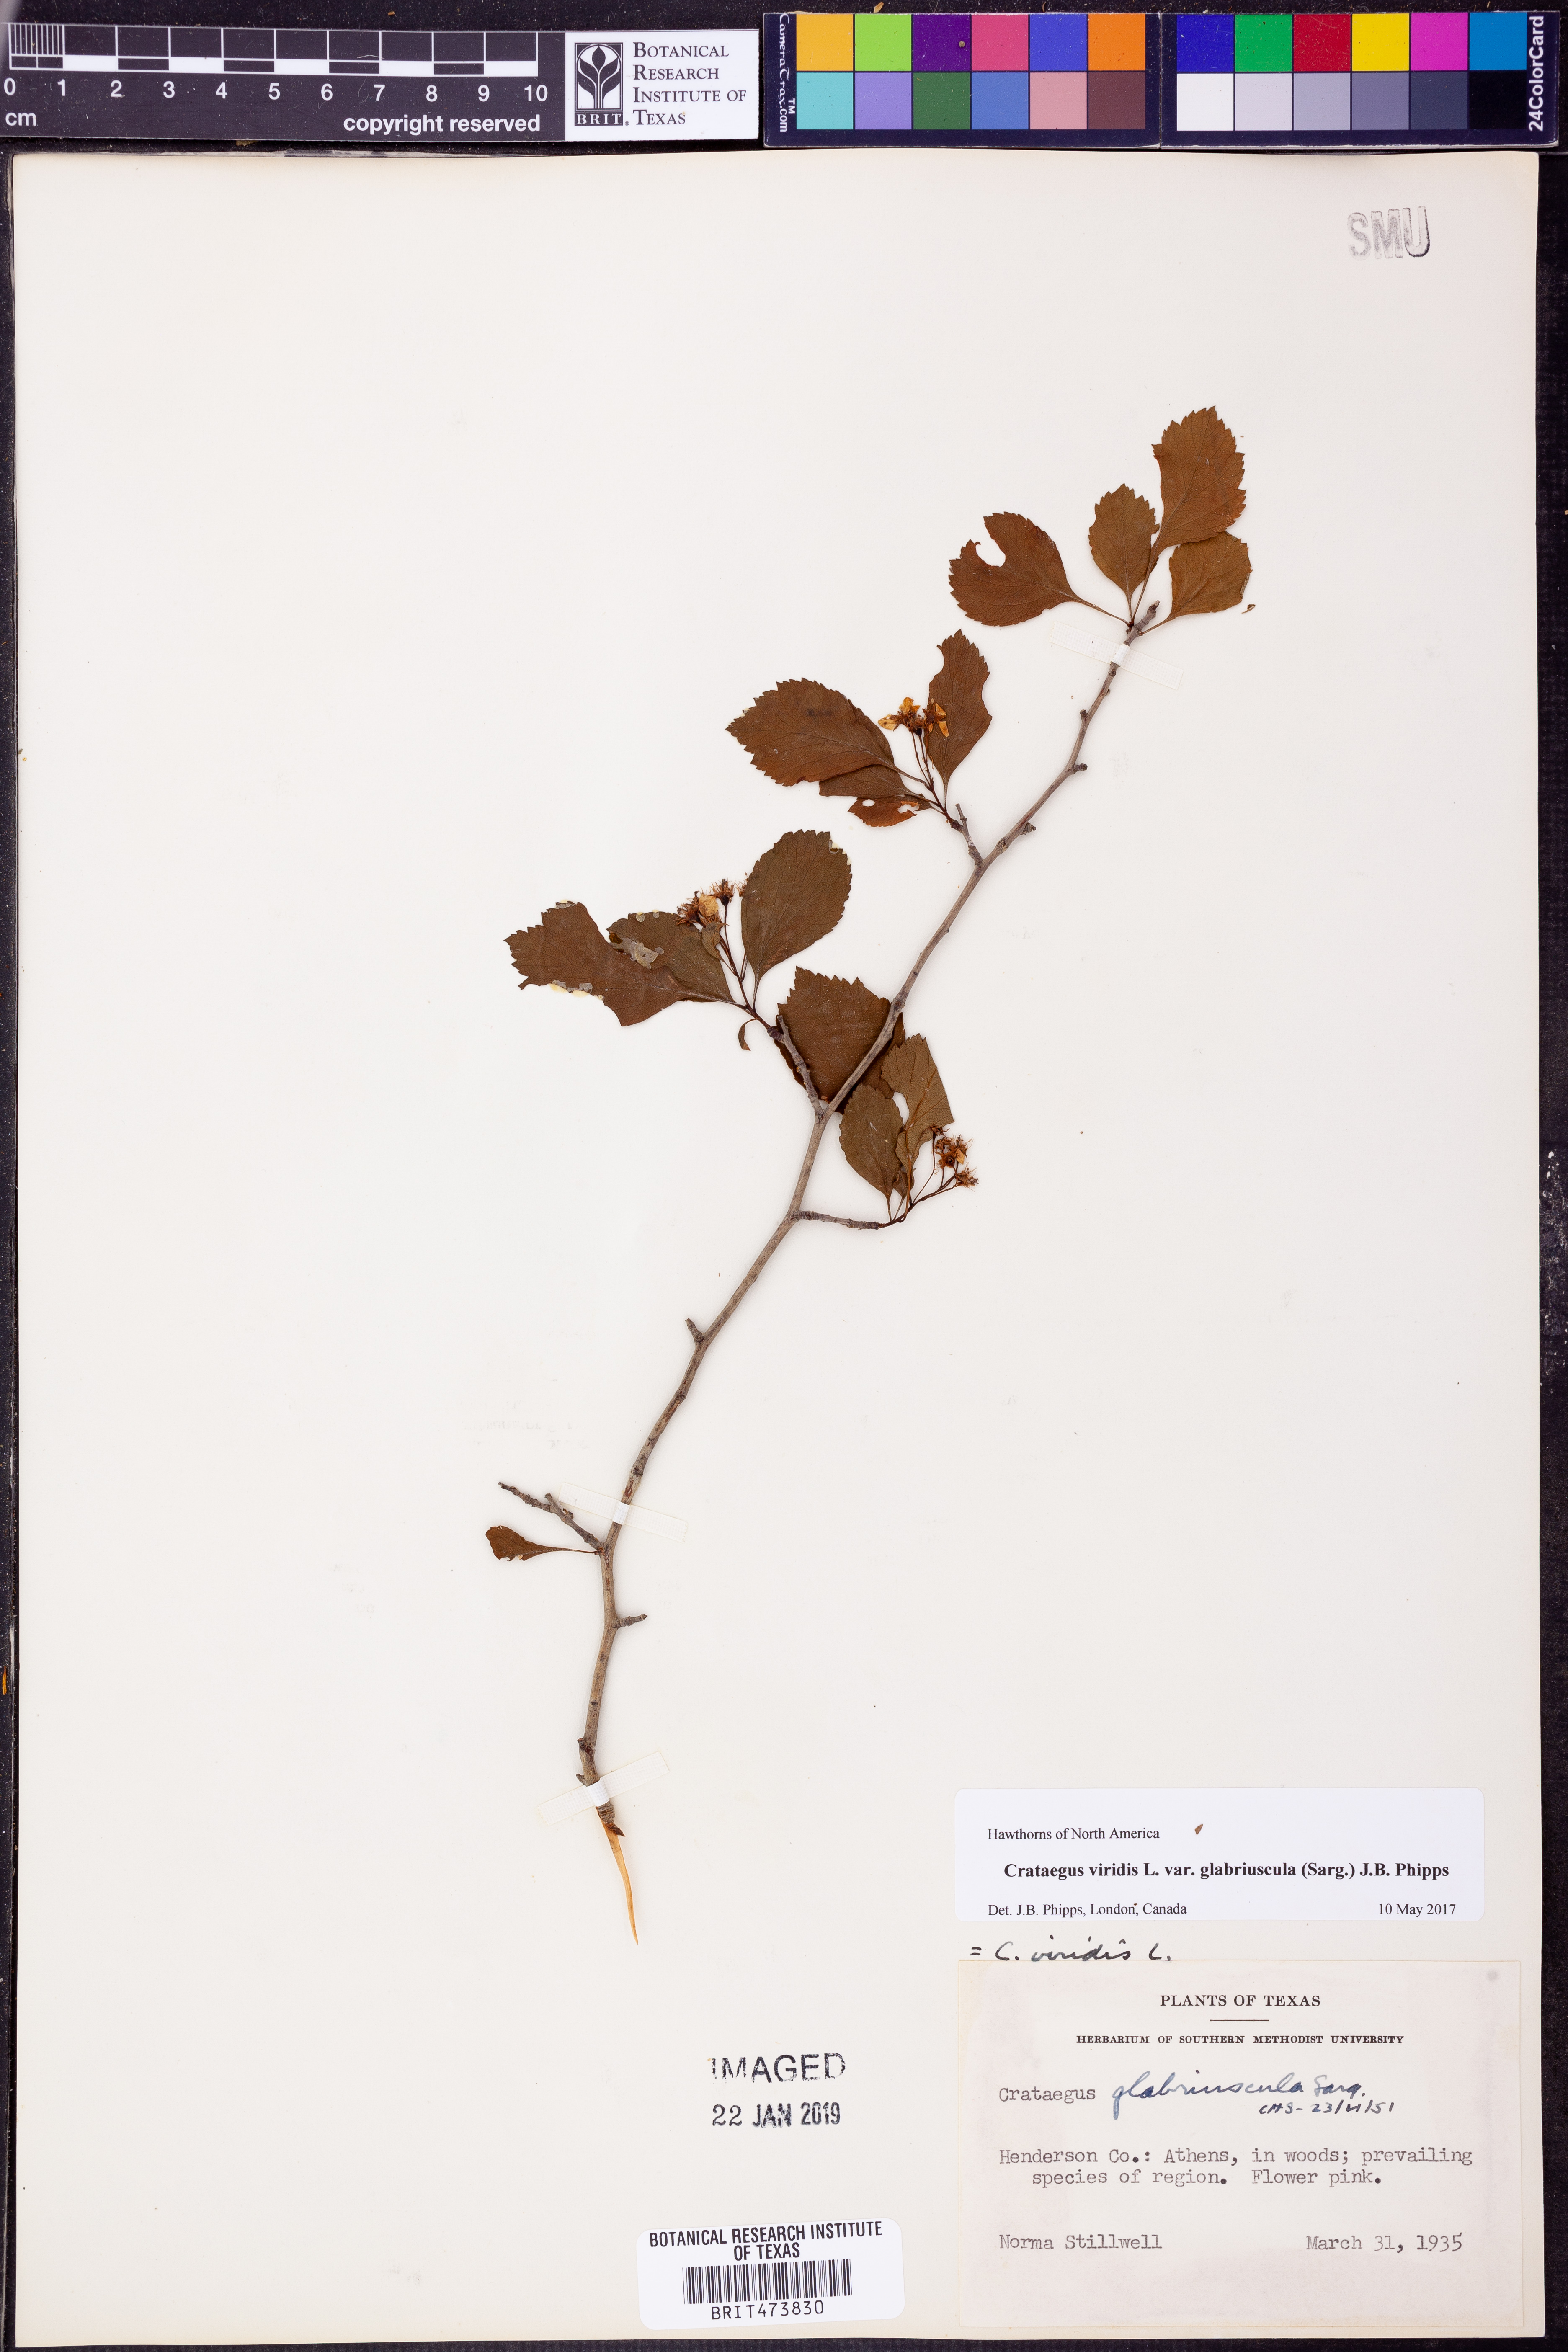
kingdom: Plantae
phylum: Tracheophyta
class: Magnoliopsida
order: Rosales
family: Rosaceae
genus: Crataegus
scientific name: Crataegus viridis
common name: Southernthorn
